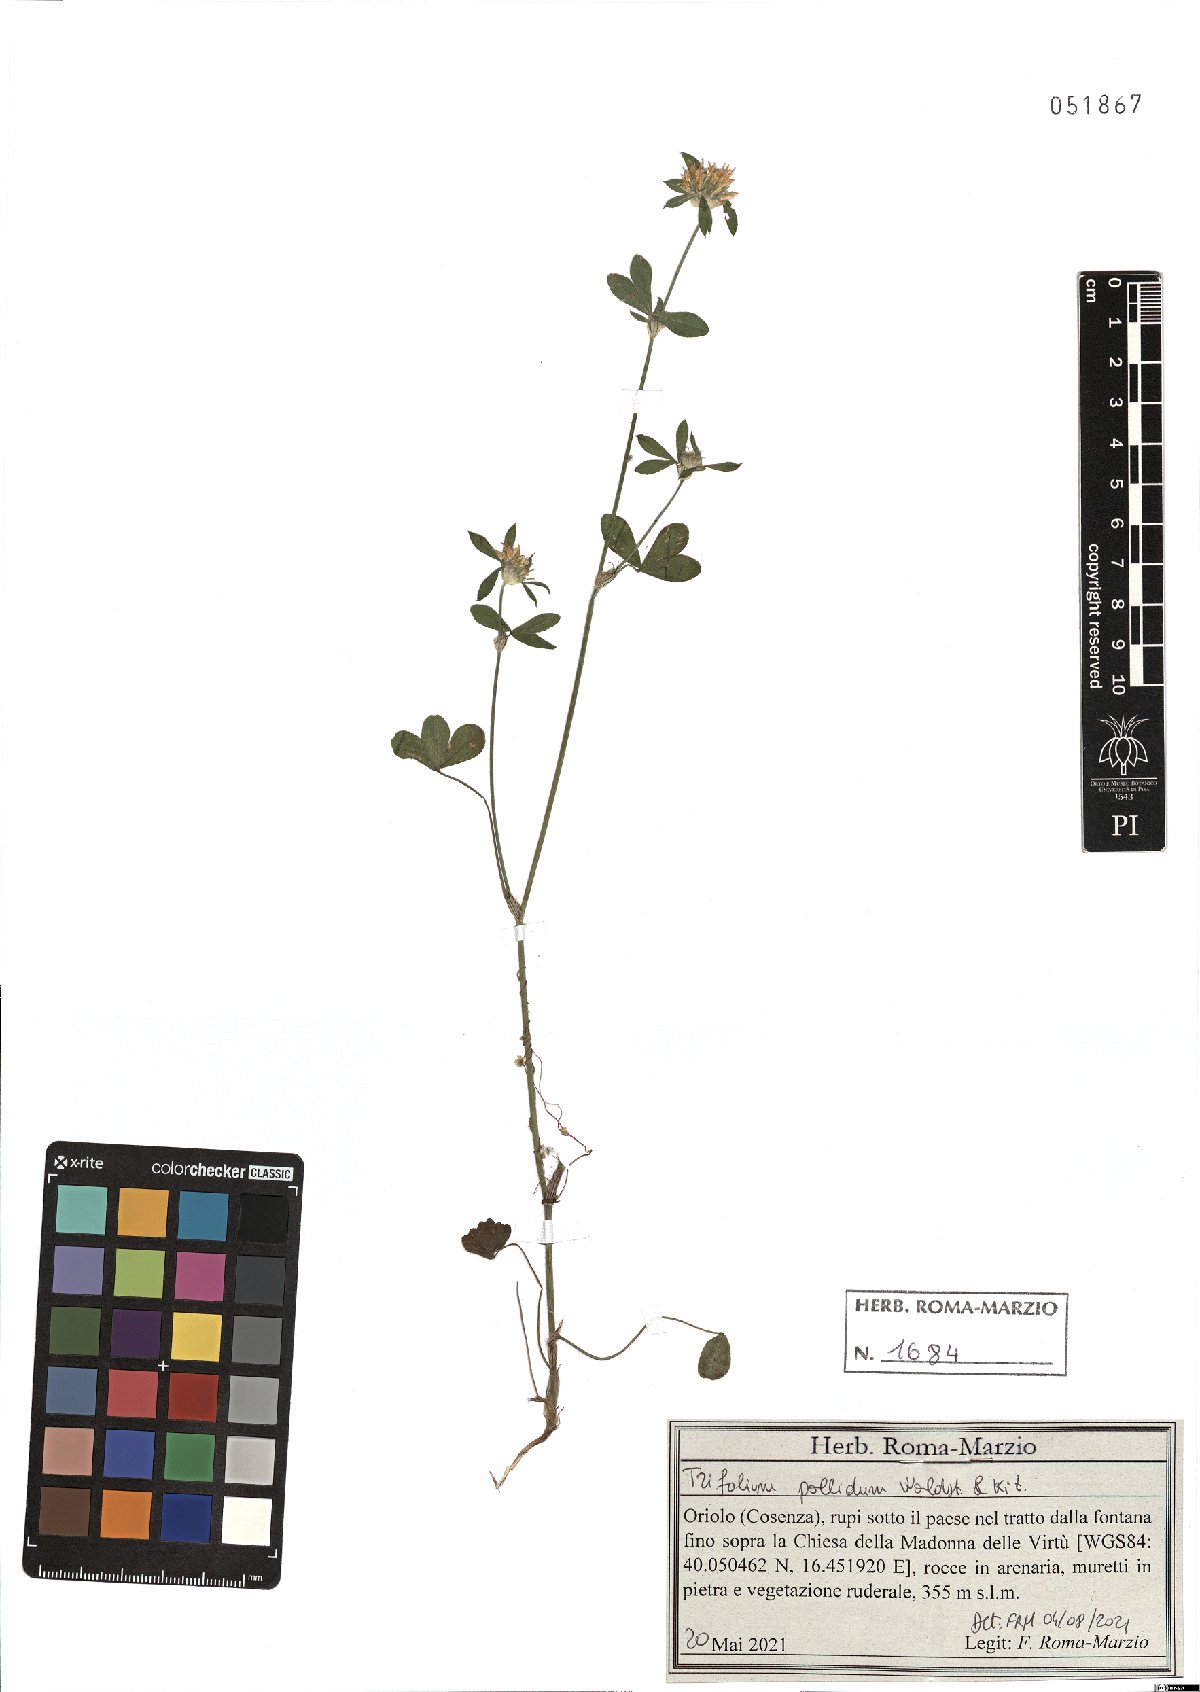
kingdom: Plantae
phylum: Tracheophyta
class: Magnoliopsida
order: Fabales
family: Fabaceae
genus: Trifolium
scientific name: Trifolium pallidum
